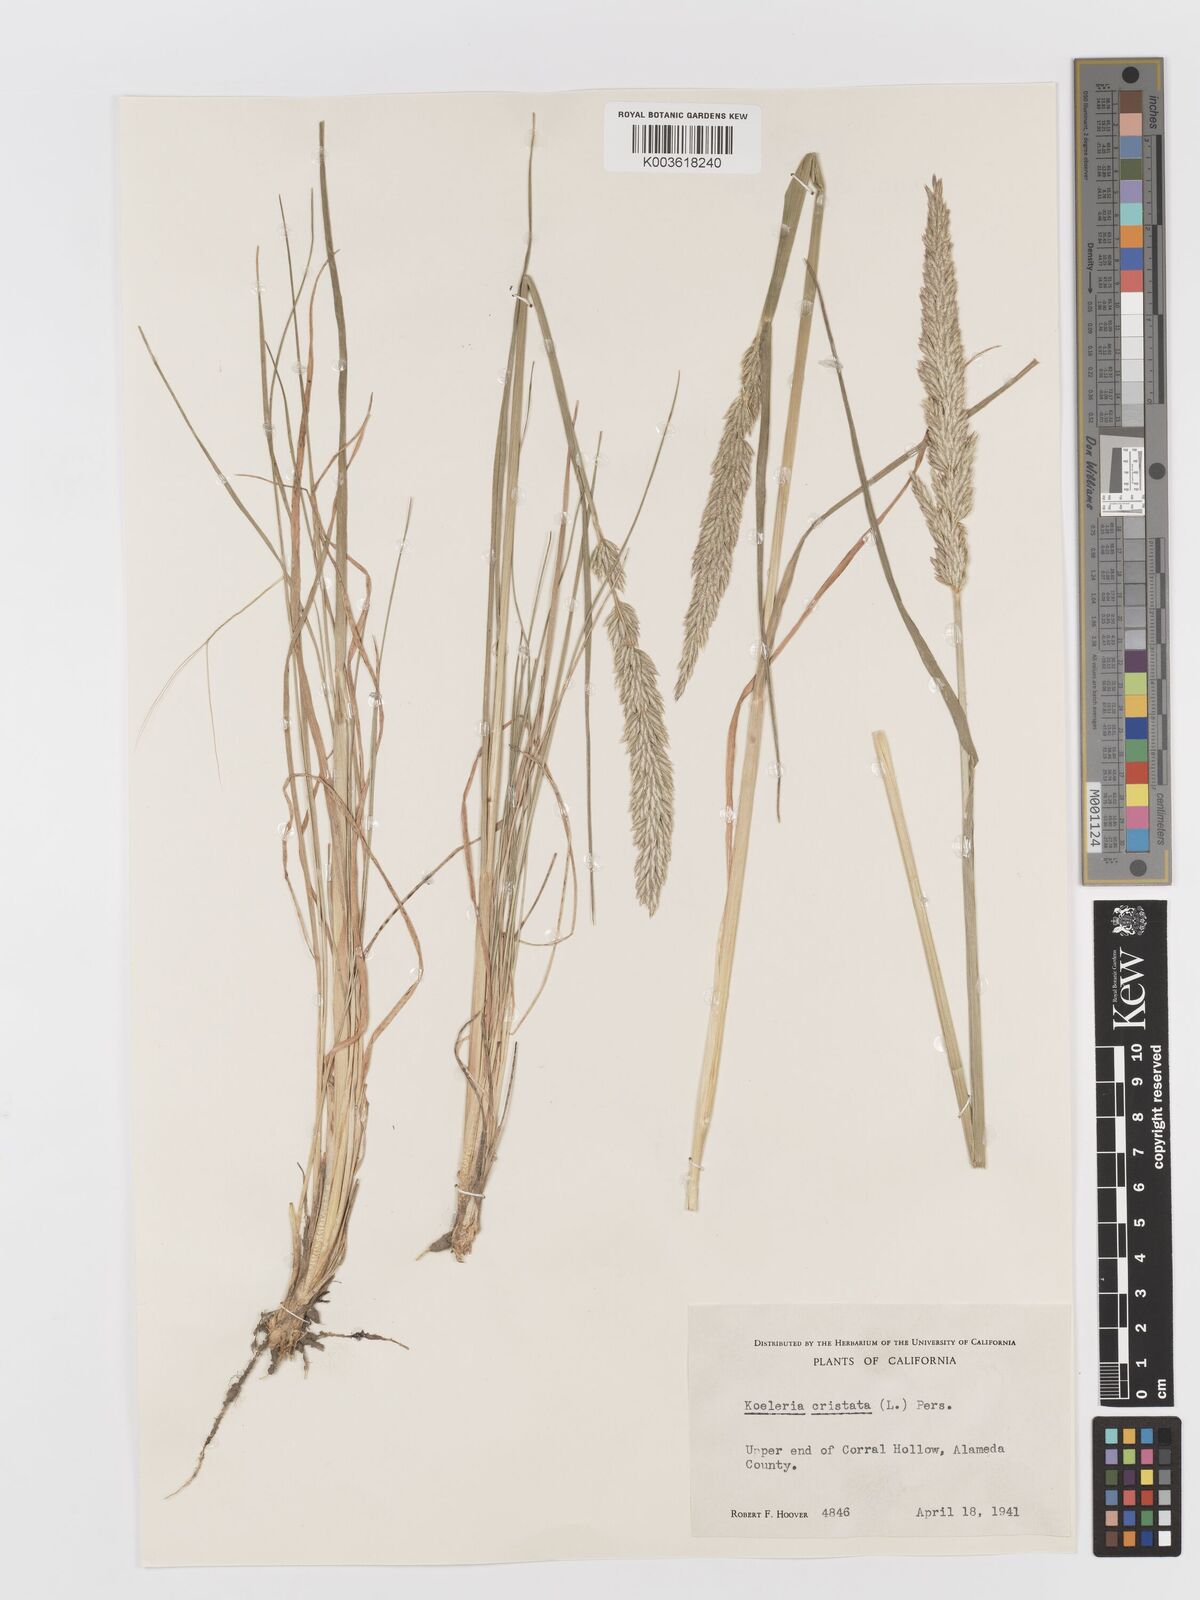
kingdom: Plantae
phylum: Tracheophyta
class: Liliopsida
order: Poales
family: Poaceae
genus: Koeleria
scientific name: Koeleria macrantha
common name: Crested hair-grass
